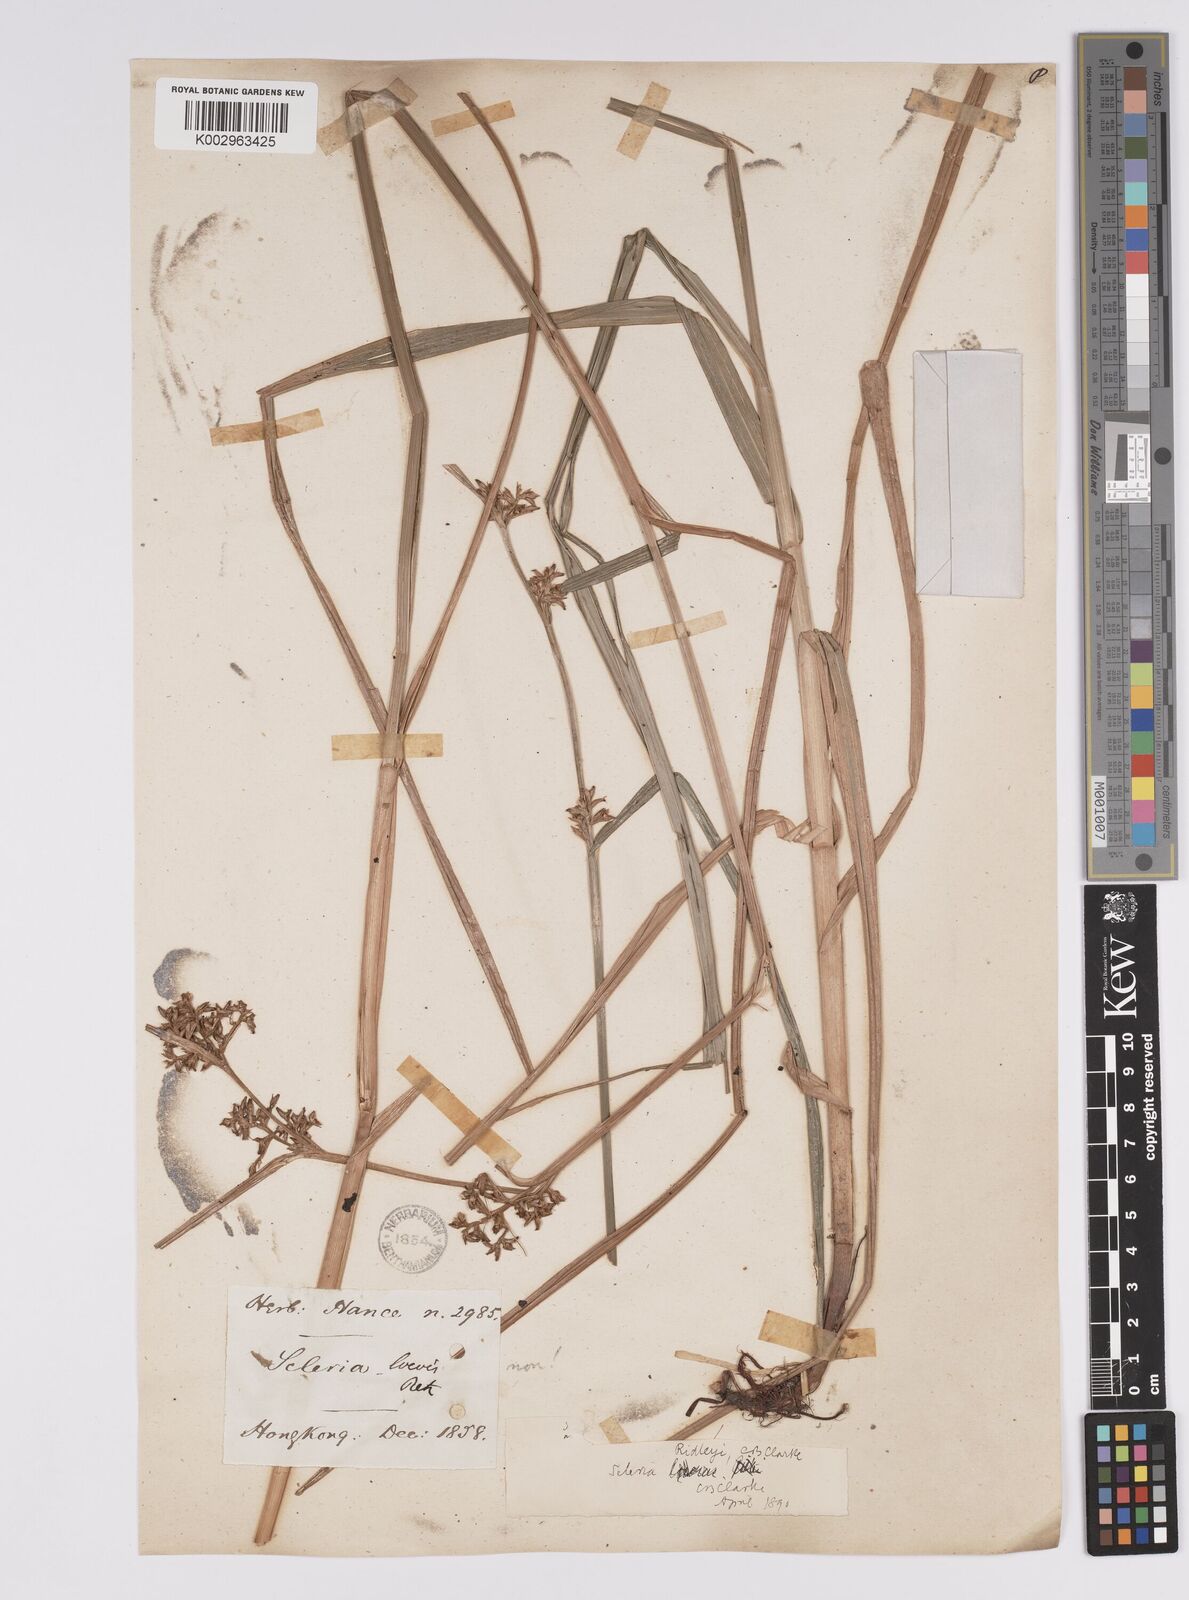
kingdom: Plantae
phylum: Tracheophyta
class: Liliopsida
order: Poales
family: Cyperaceae
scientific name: Cyperaceae
